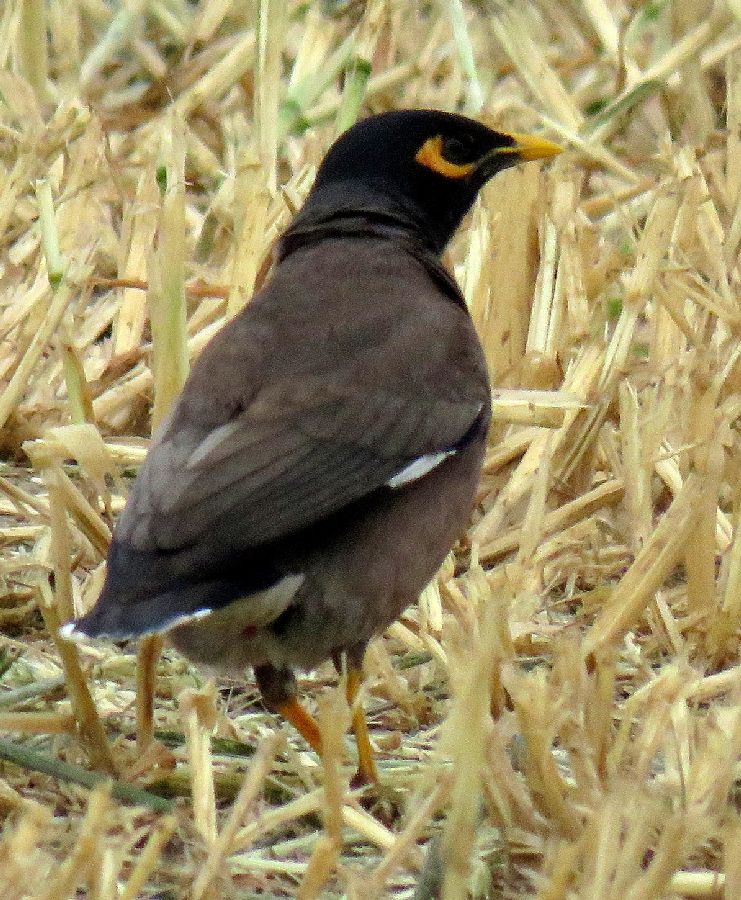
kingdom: Animalia
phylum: Chordata
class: Aves
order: Passeriformes
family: Sturnidae
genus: Acridotheres
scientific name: Acridotheres tristis
